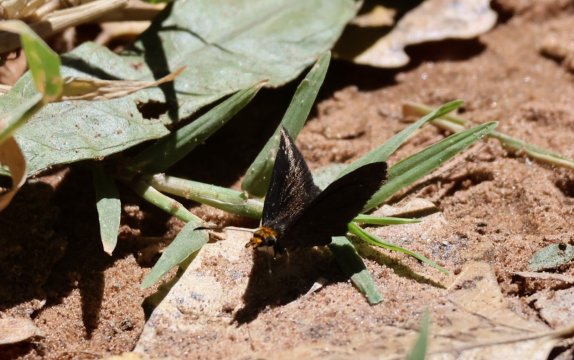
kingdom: Animalia
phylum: Arthropoda
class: Insecta
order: Lepidoptera
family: Hesperiidae
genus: Staphylus
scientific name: Staphylus ceos
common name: Golden-headed Scallopwing
